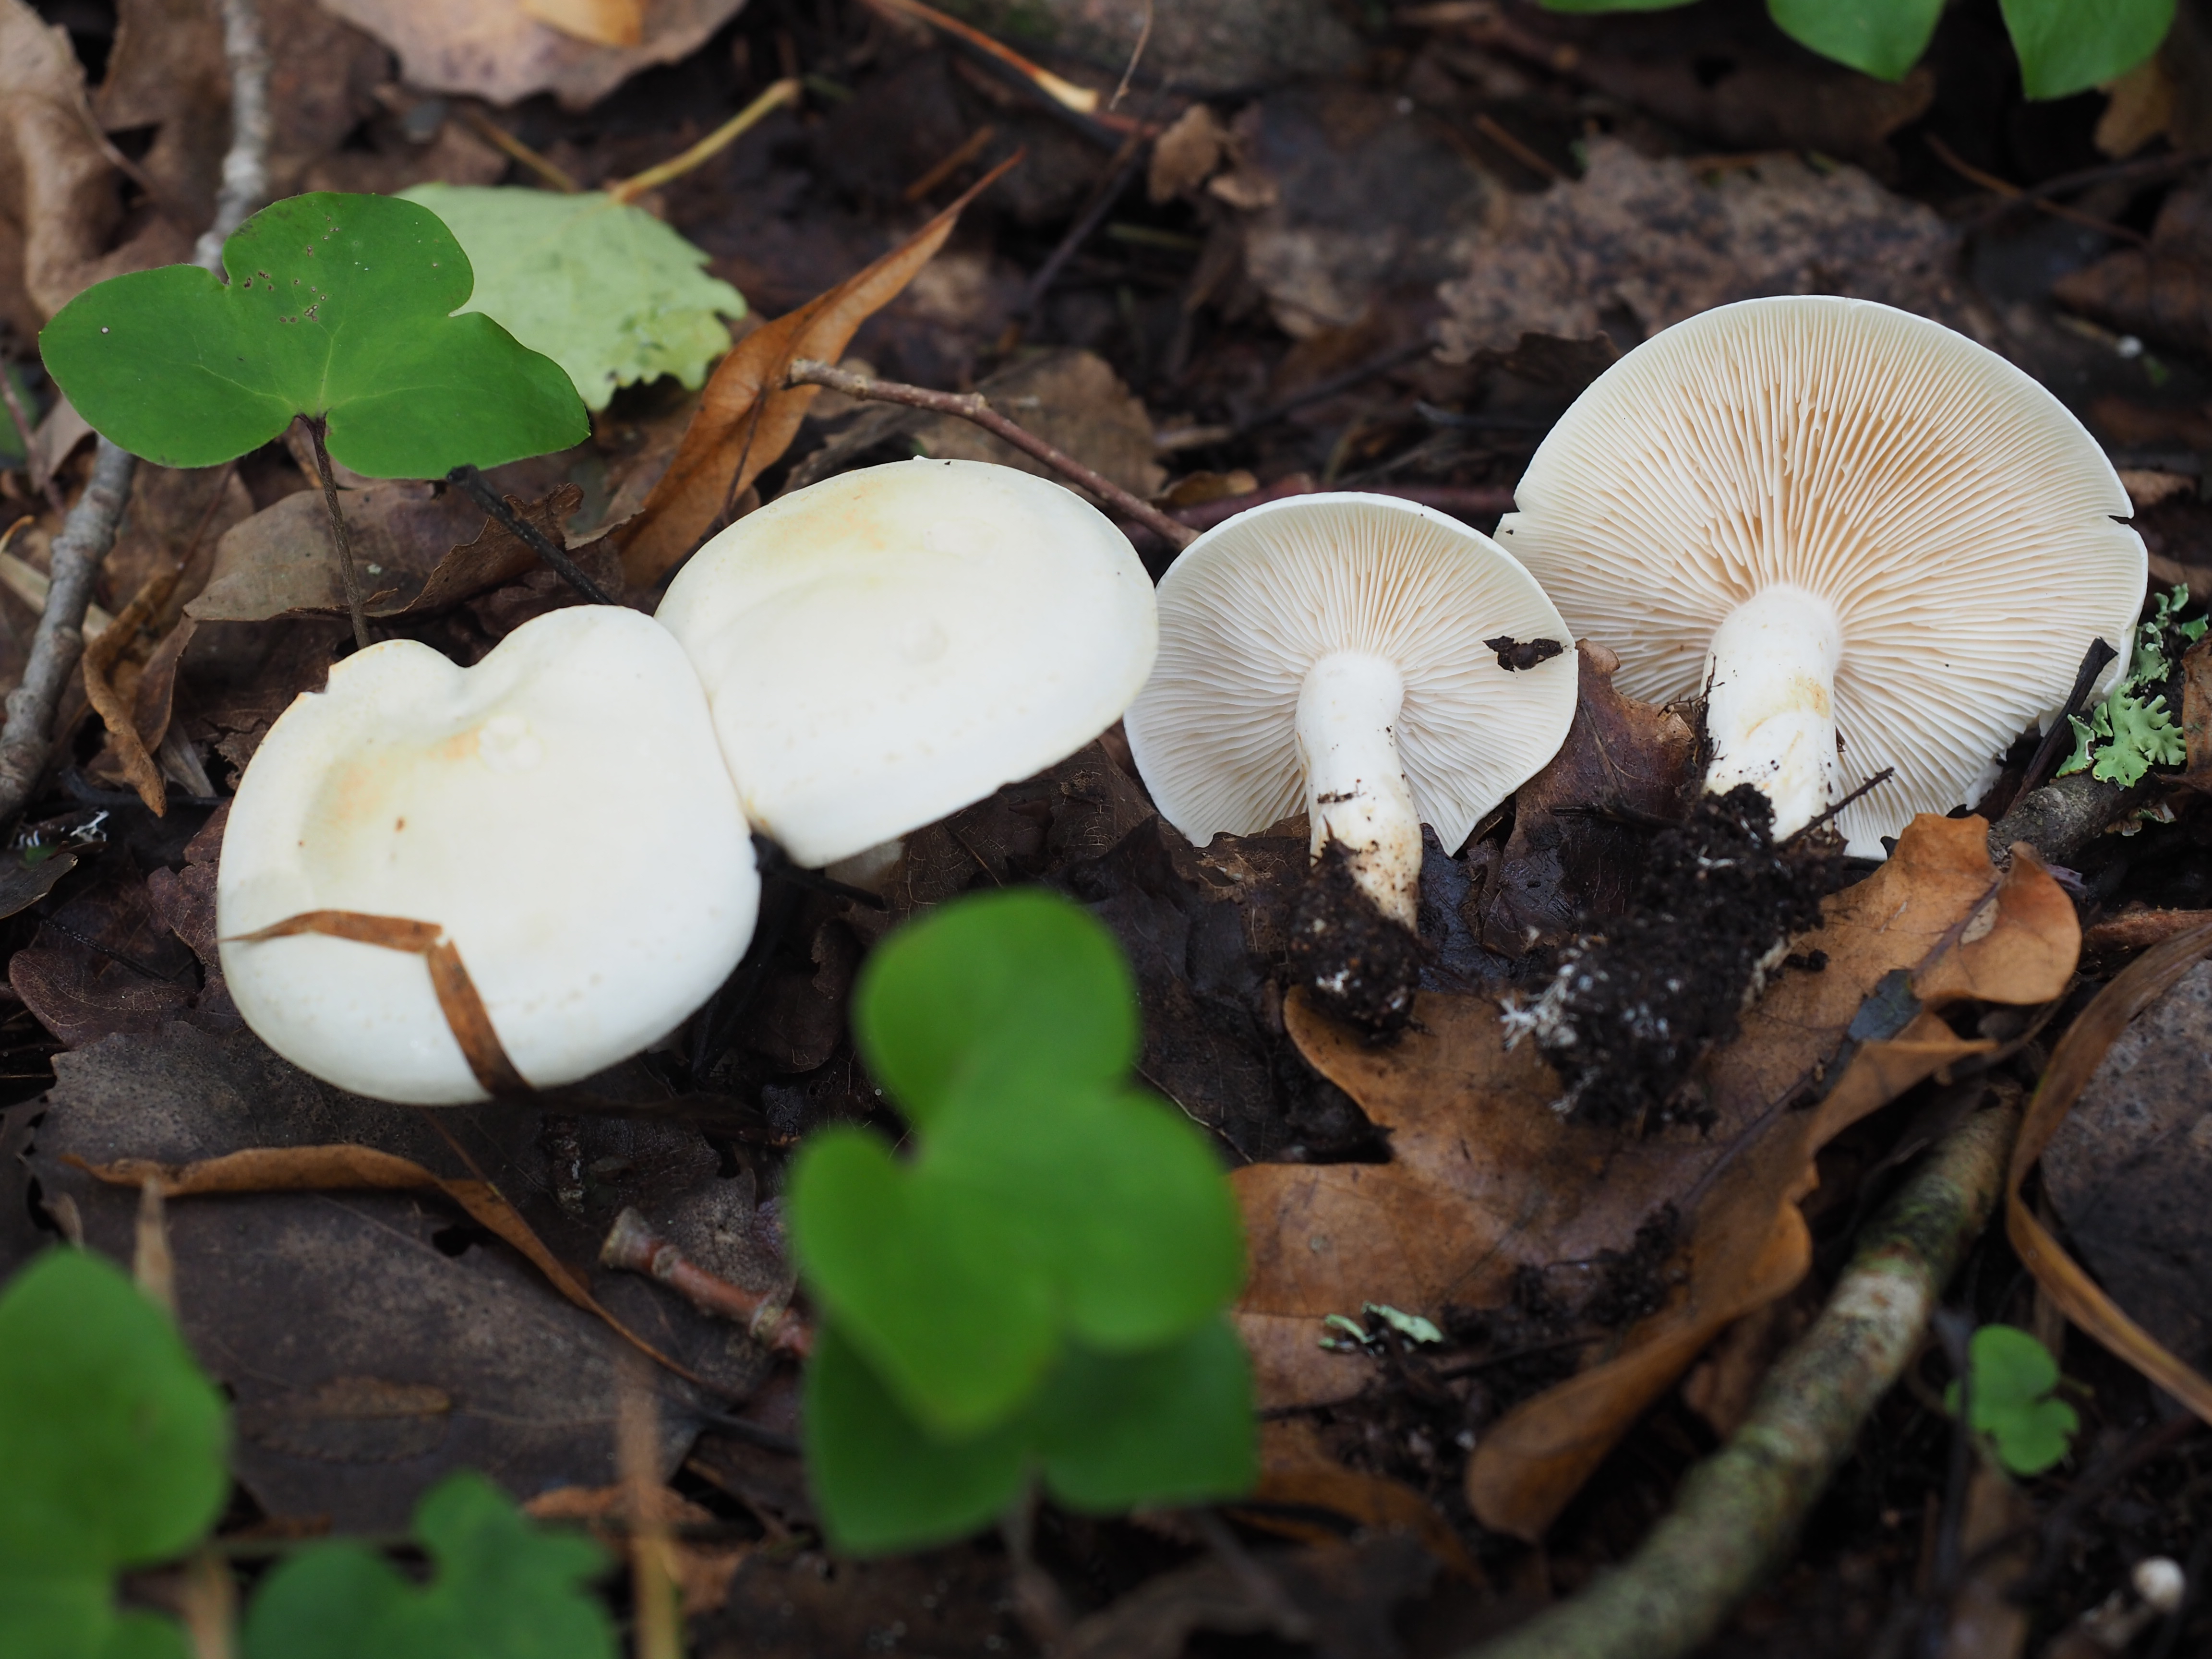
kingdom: Fungi
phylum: Basidiomycota
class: Agaricomycetes
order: Agaricales
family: Tricholomataceae
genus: Tricholoma
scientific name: Tricholoma stiparophyllum
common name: Chemical knight
